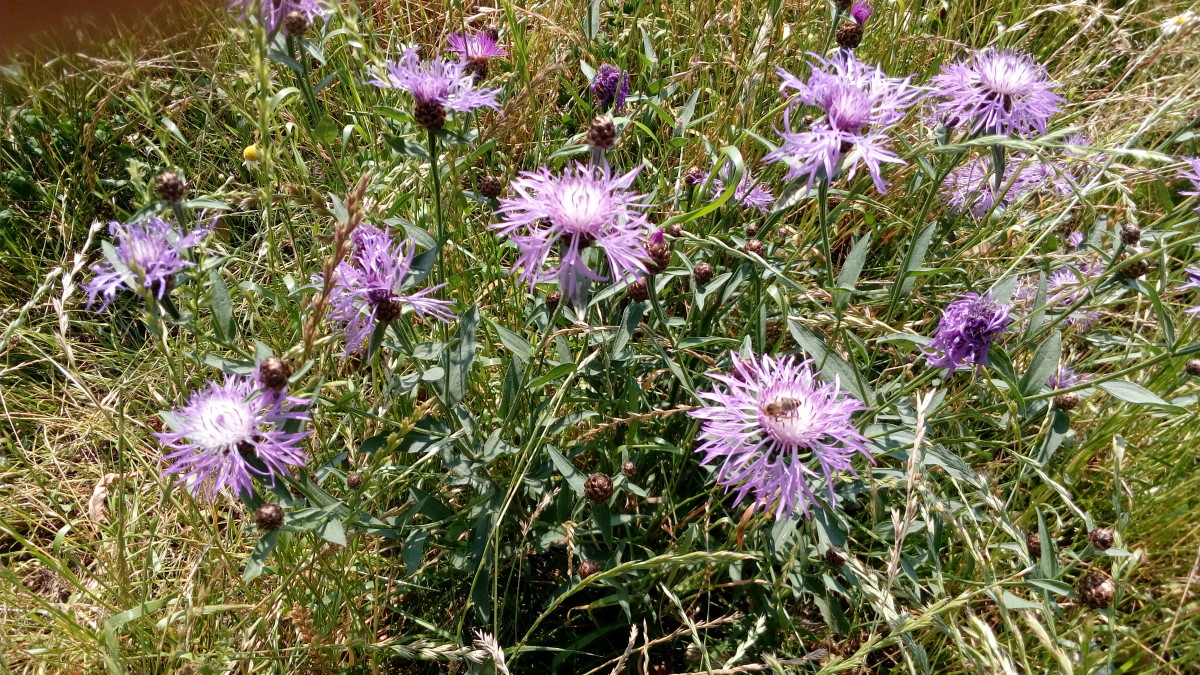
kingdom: Plantae
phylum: Tracheophyta
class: Magnoliopsida
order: Asterales
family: Asteraceae
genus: Centaurea
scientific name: Centaurea jacea
